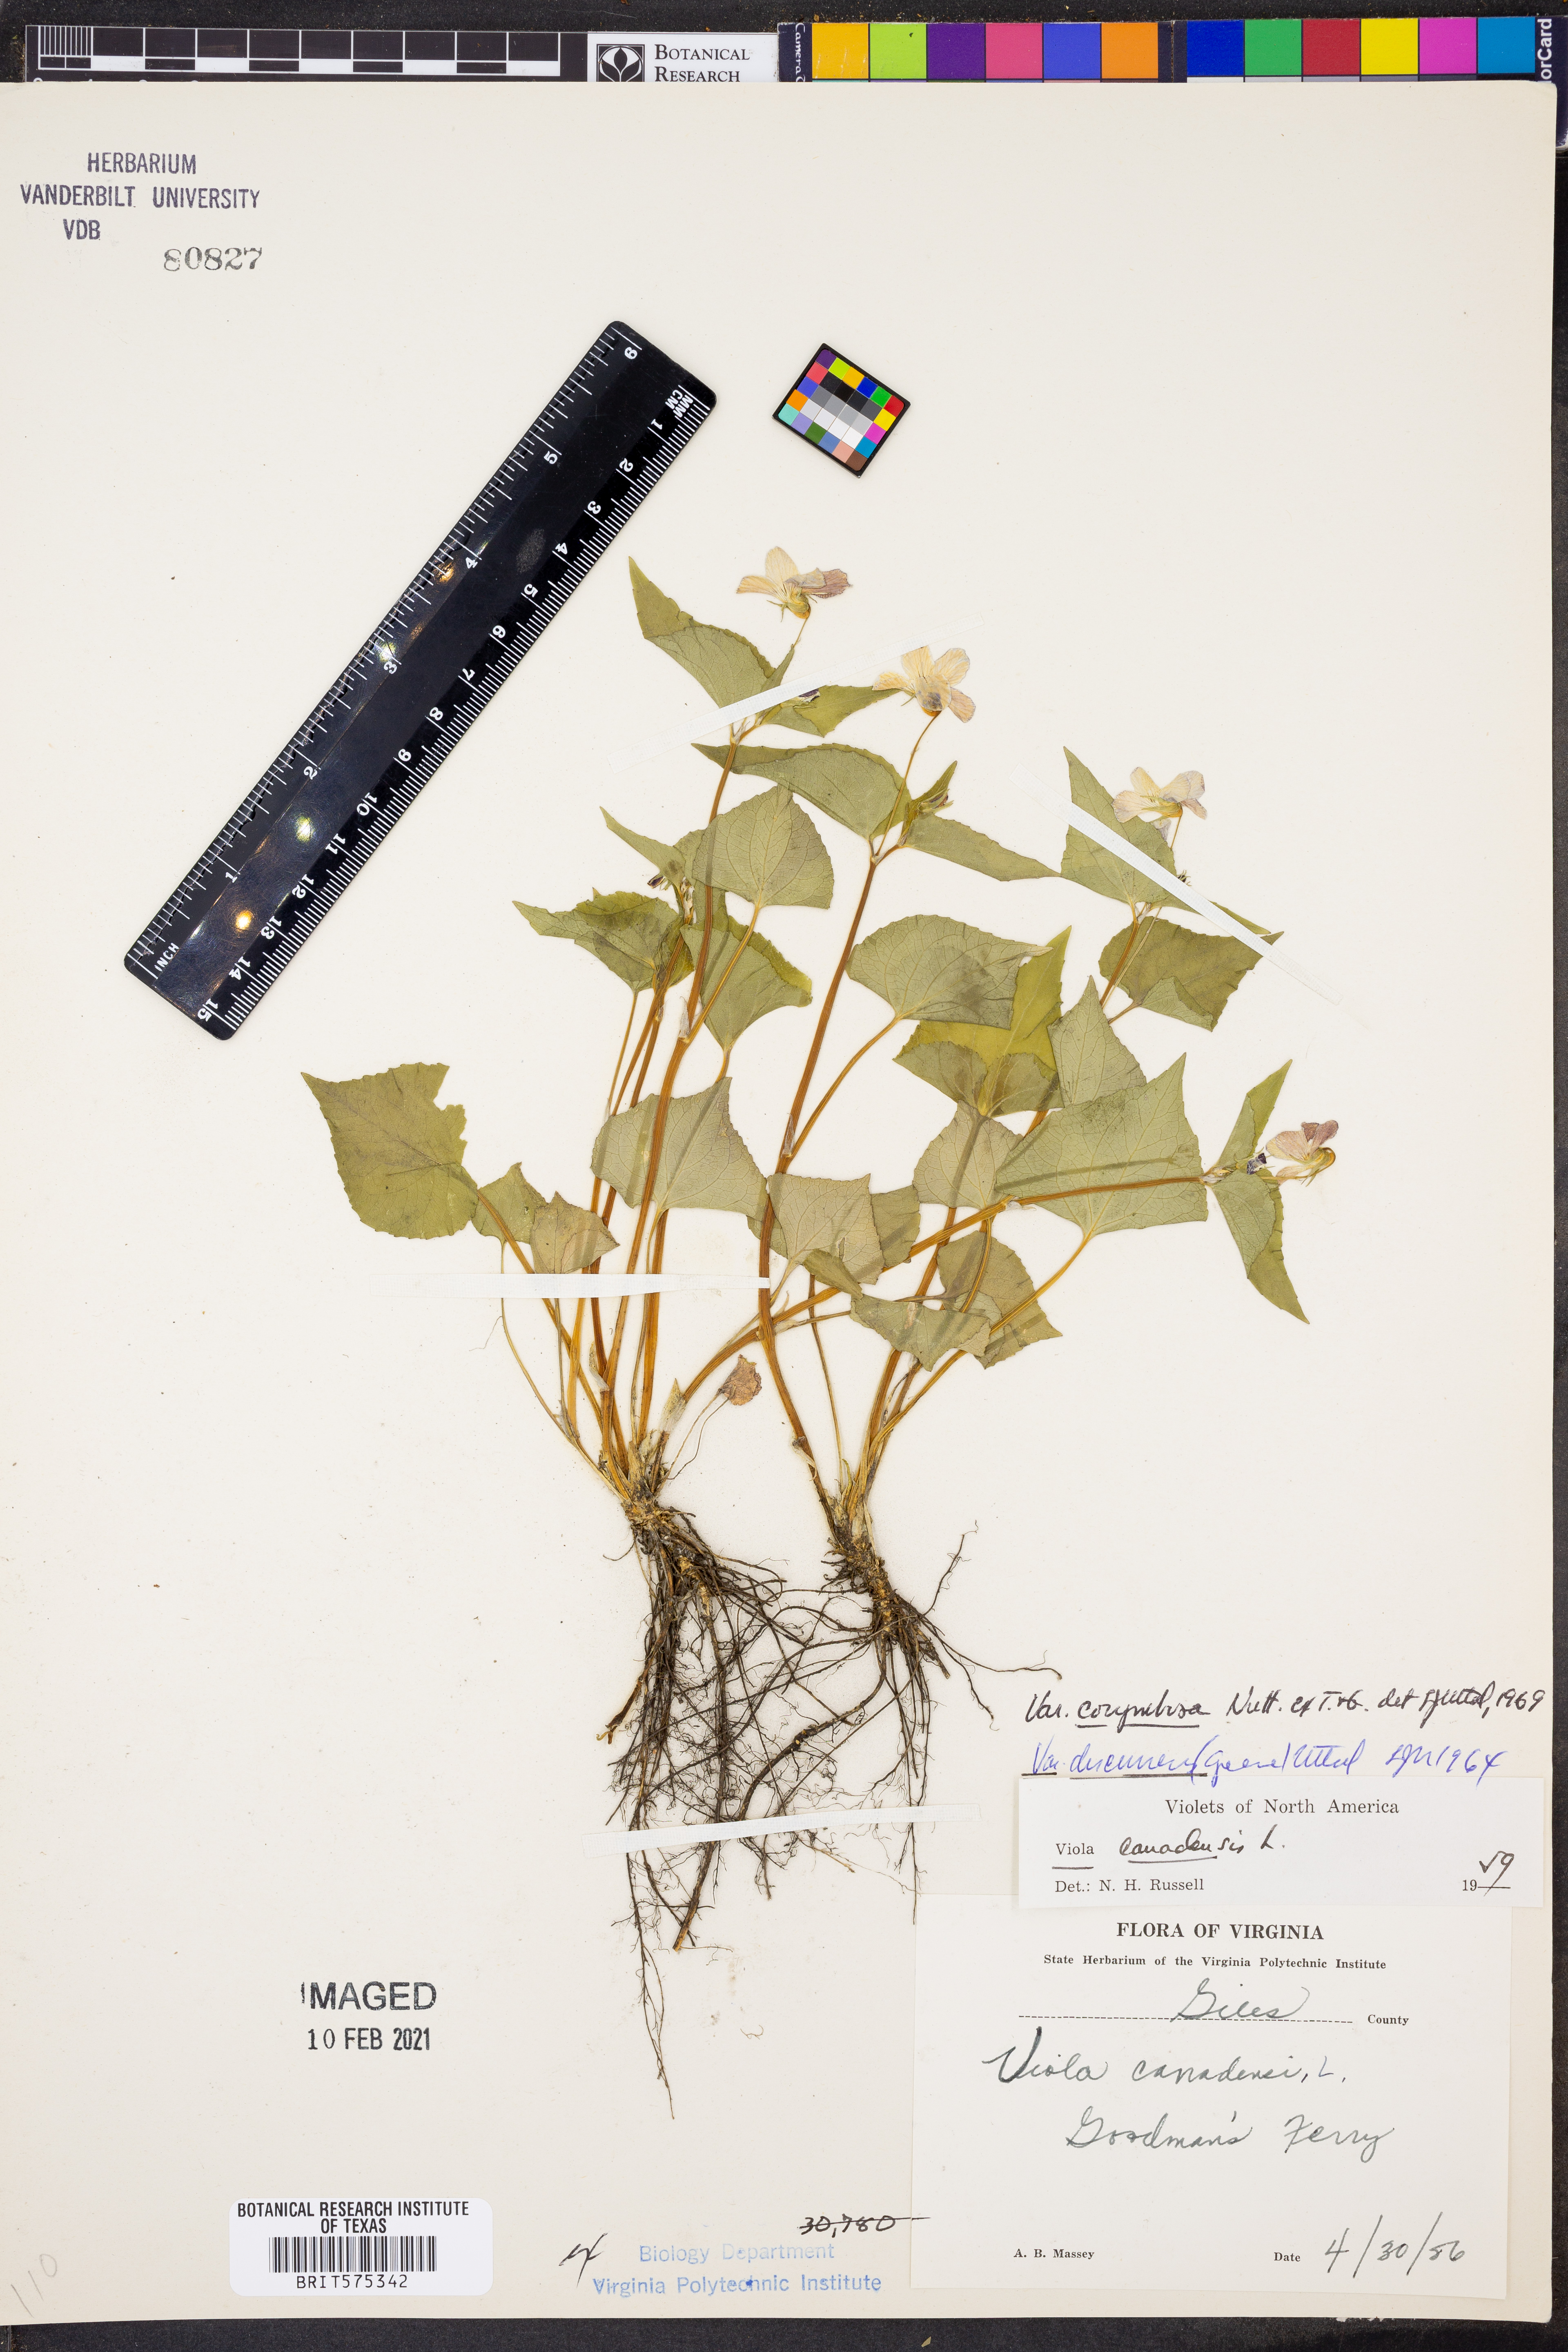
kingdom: Plantae
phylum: Tracheophyta
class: Magnoliopsida
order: Malpighiales
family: Violaceae
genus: Viola
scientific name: Viola canadensis
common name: Canada violet
